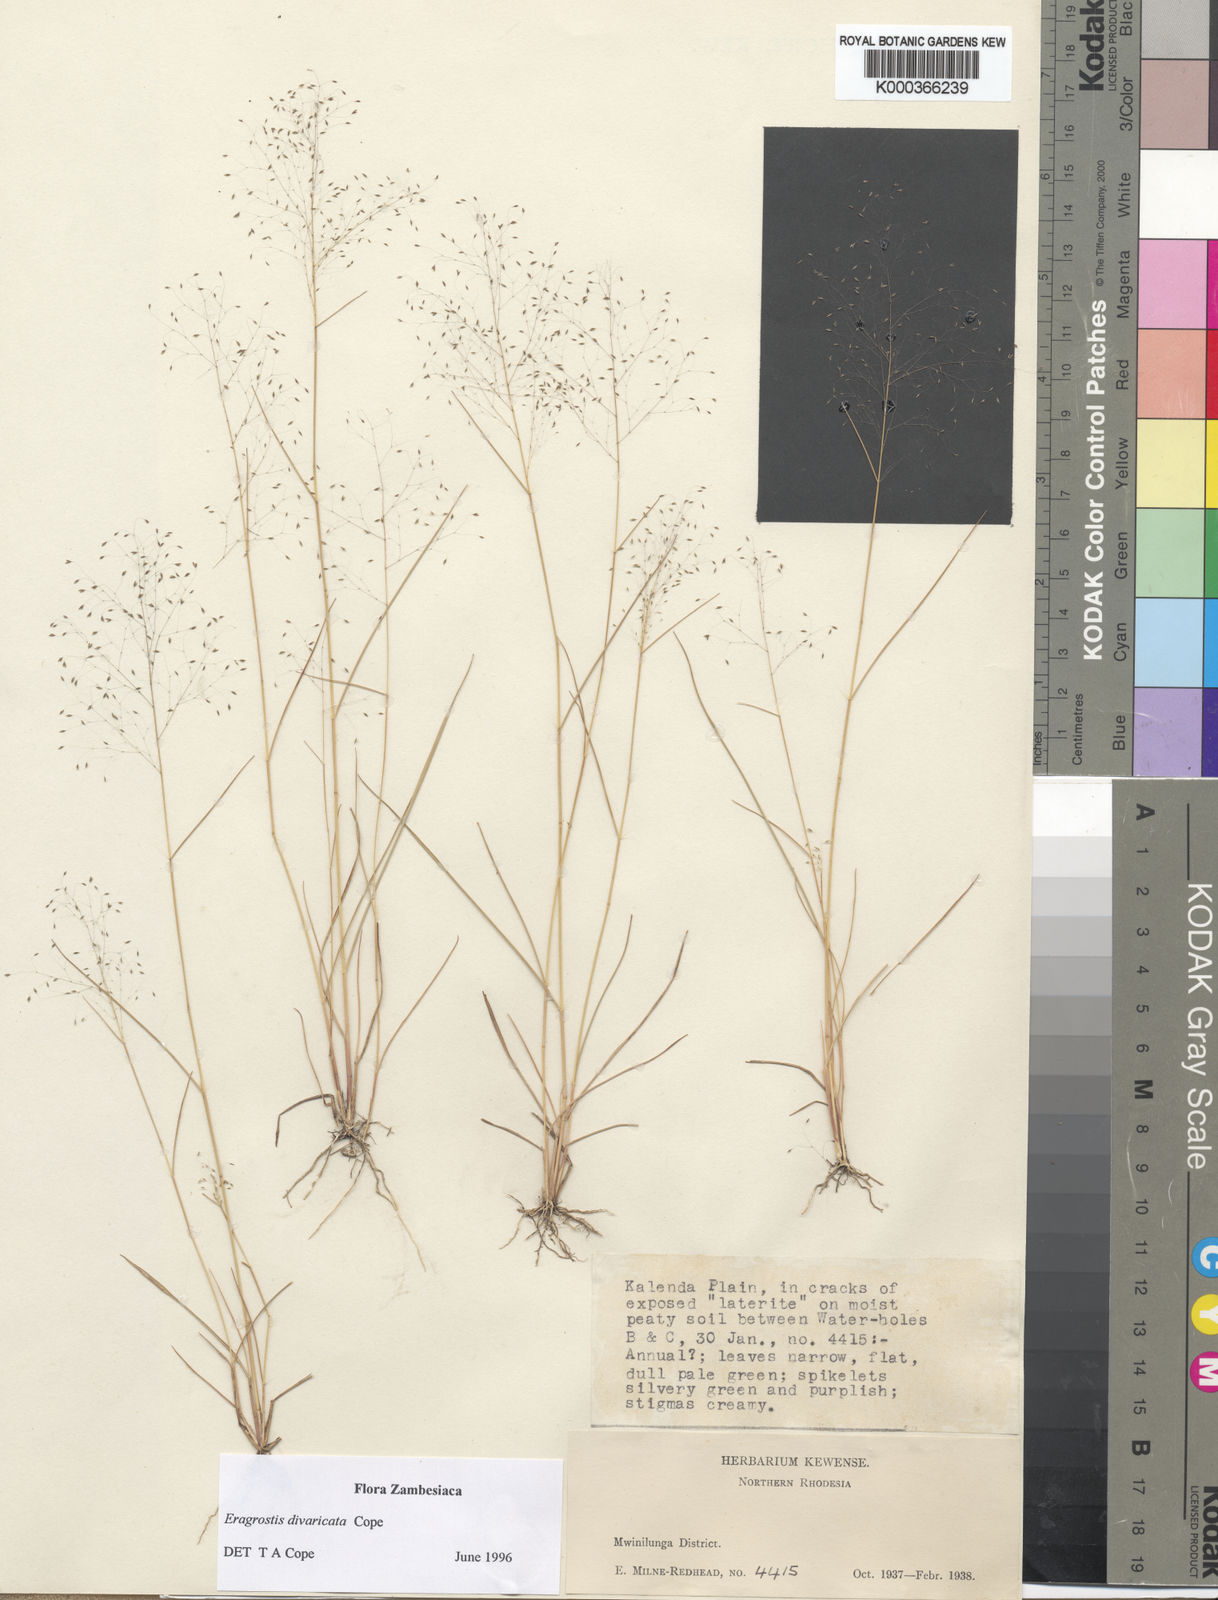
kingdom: Plantae
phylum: Tracheophyta
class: Liliopsida
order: Poales
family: Poaceae
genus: Eragrostis
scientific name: Eragrostis divaricata
